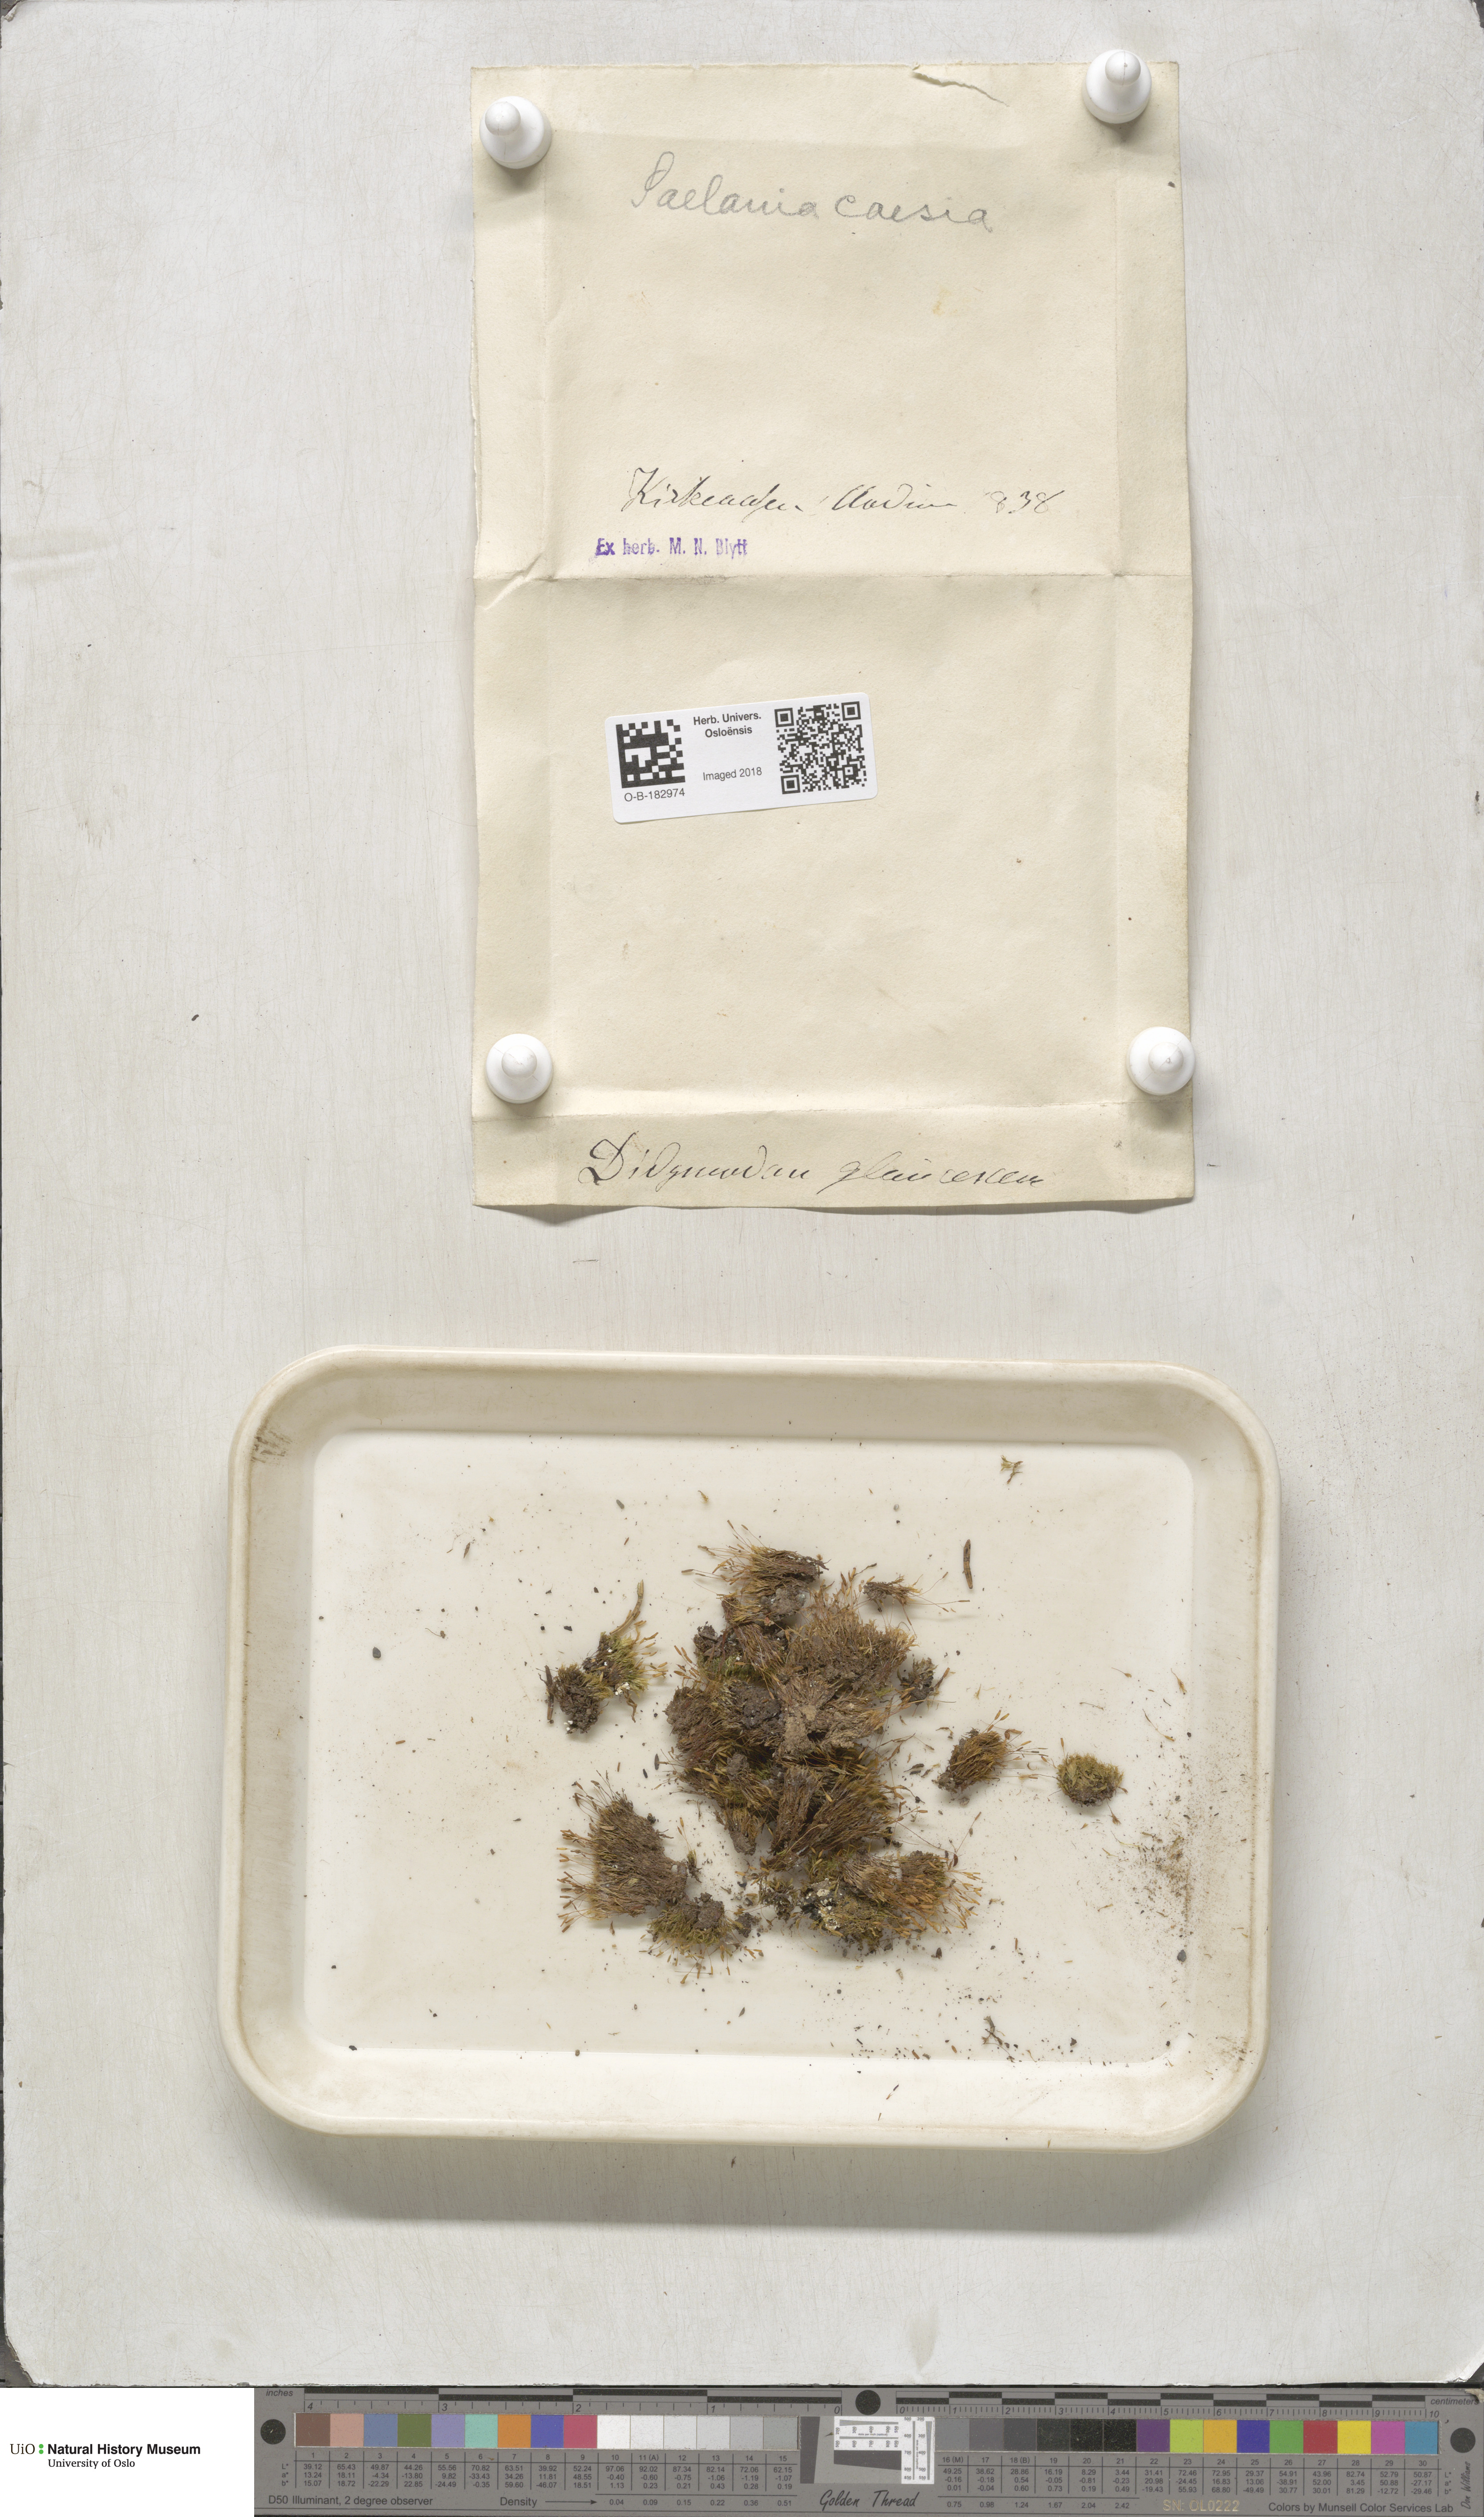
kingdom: Plantae
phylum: Bryophyta
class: Bryopsida
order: Grimmiales
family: Saelaniaceae
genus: Saelania
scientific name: Saelania glaucescens
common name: Blue dew-moss
